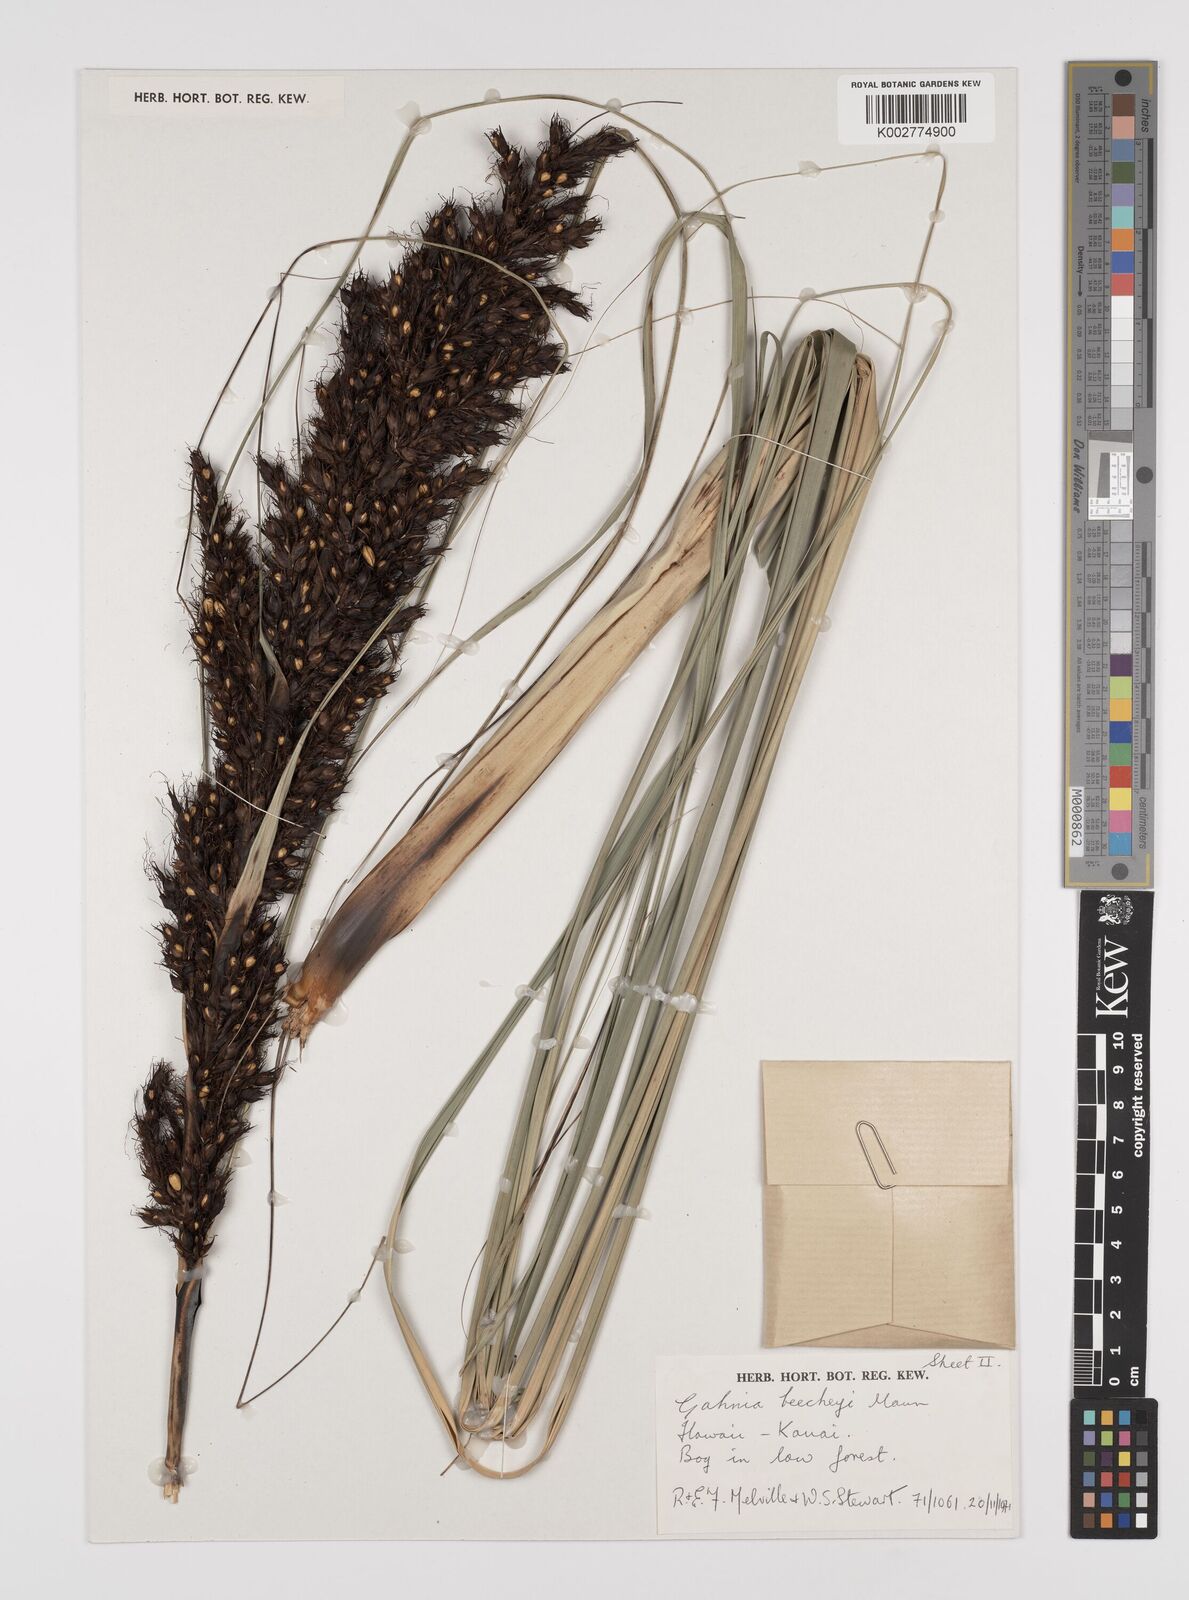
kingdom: Plantae
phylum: Tracheophyta
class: Liliopsida
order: Poales
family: Cyperaceae
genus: Gahnia
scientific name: Gahnia beecheyi
